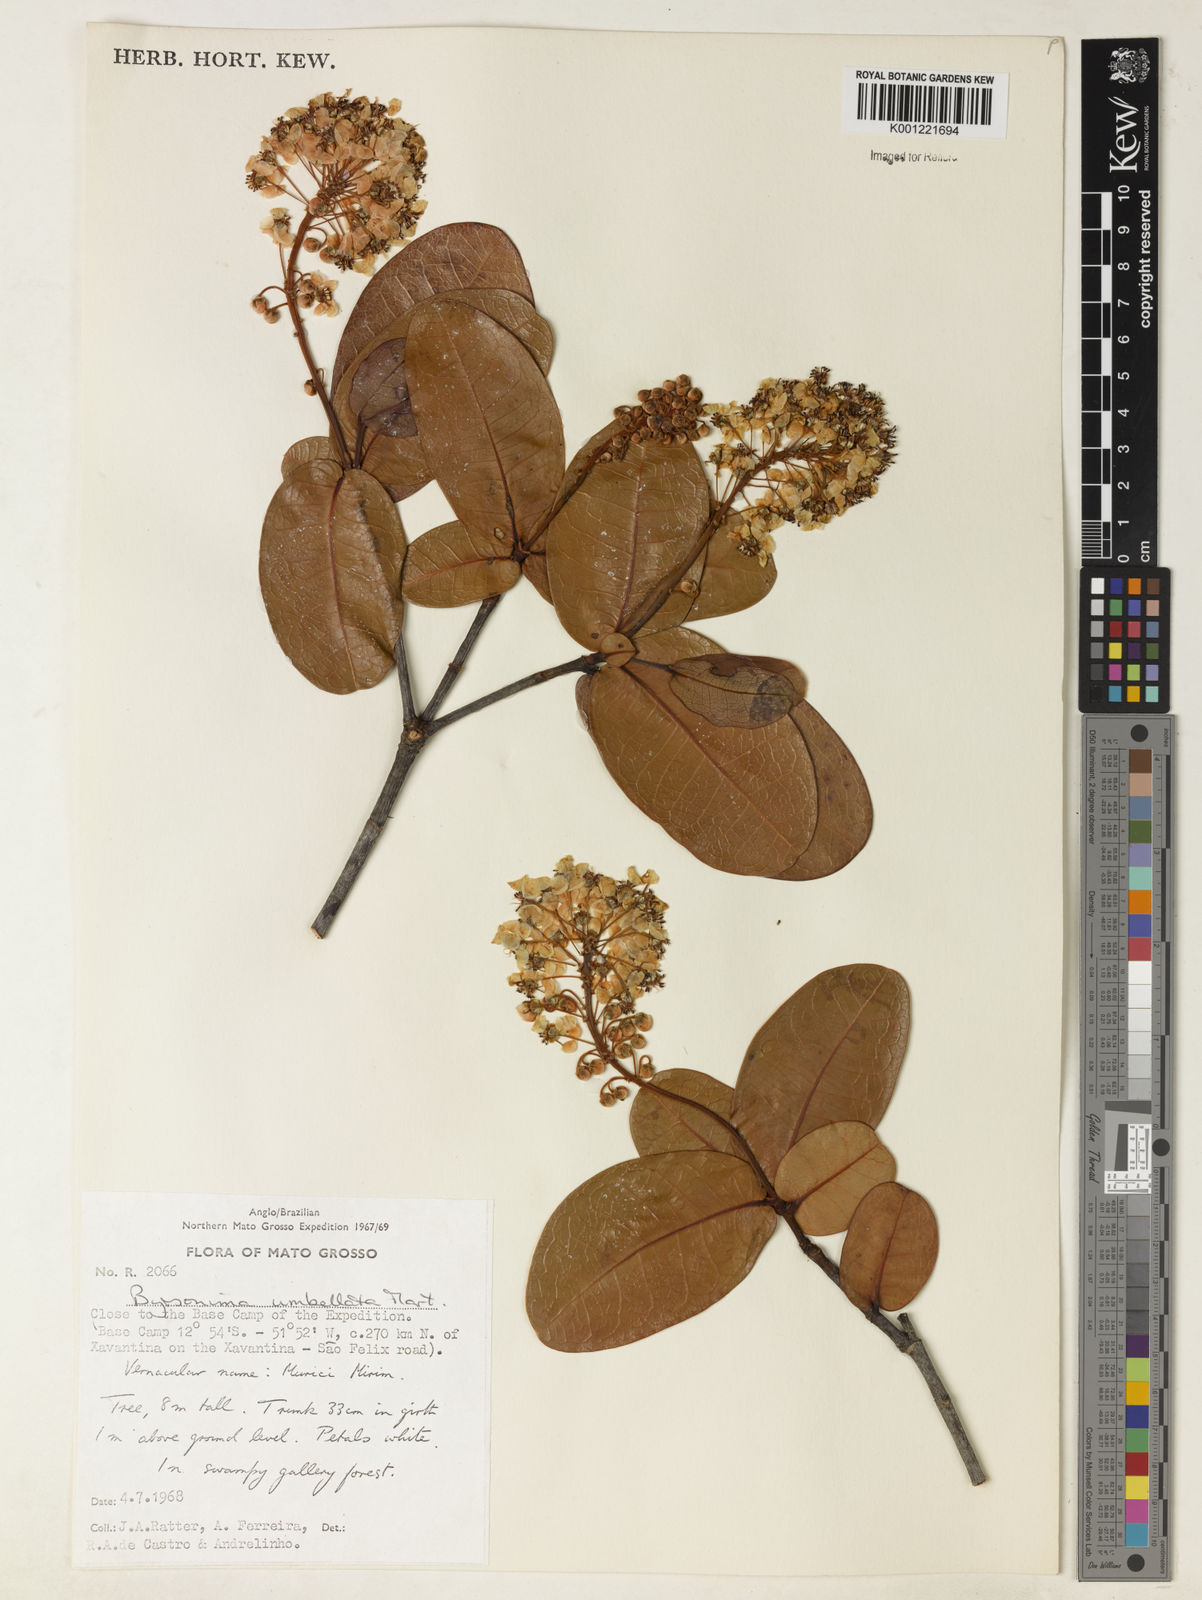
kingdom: Plantae
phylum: Tracheophyta
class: Magnoliopsida
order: Malpighiales
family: Malpighiaceae
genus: Byrsonima
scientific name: Byrsonima umbellata
